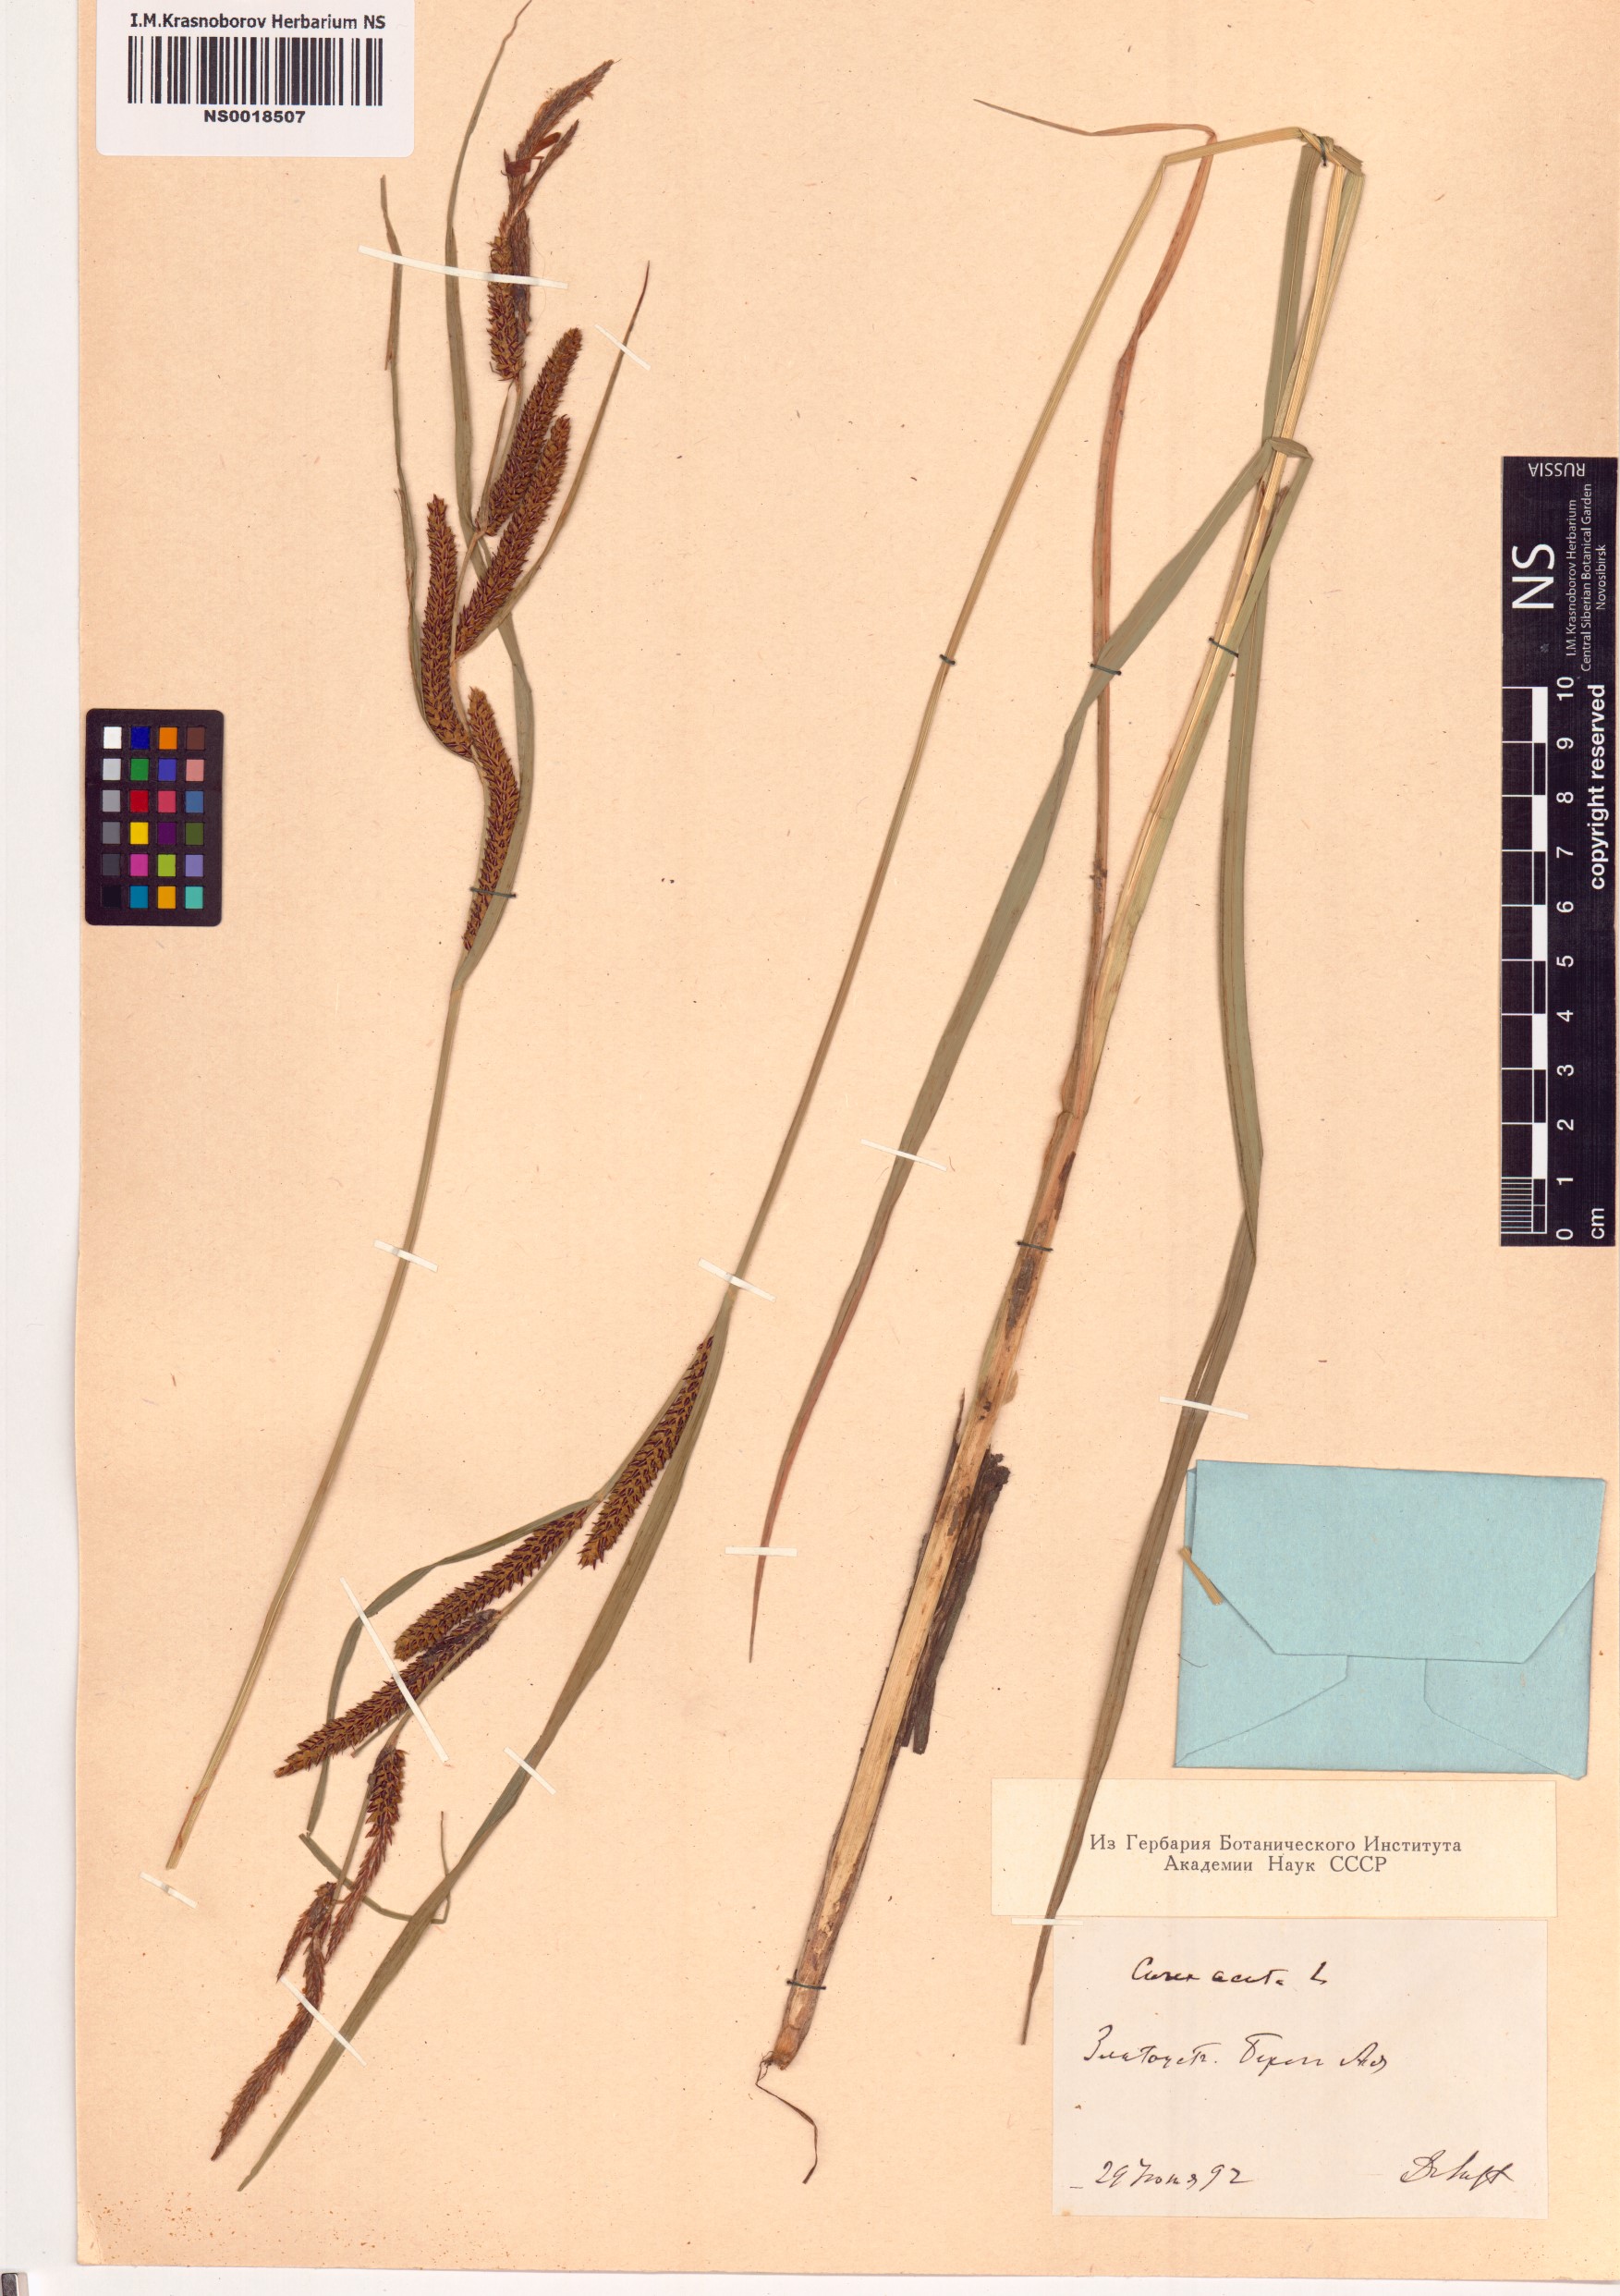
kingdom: Plantae
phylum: Tracheophyta
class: Liliopsida
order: Poales
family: Cyperaceae
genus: Carex
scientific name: Carex acuta
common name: Slender tufted-sedge
